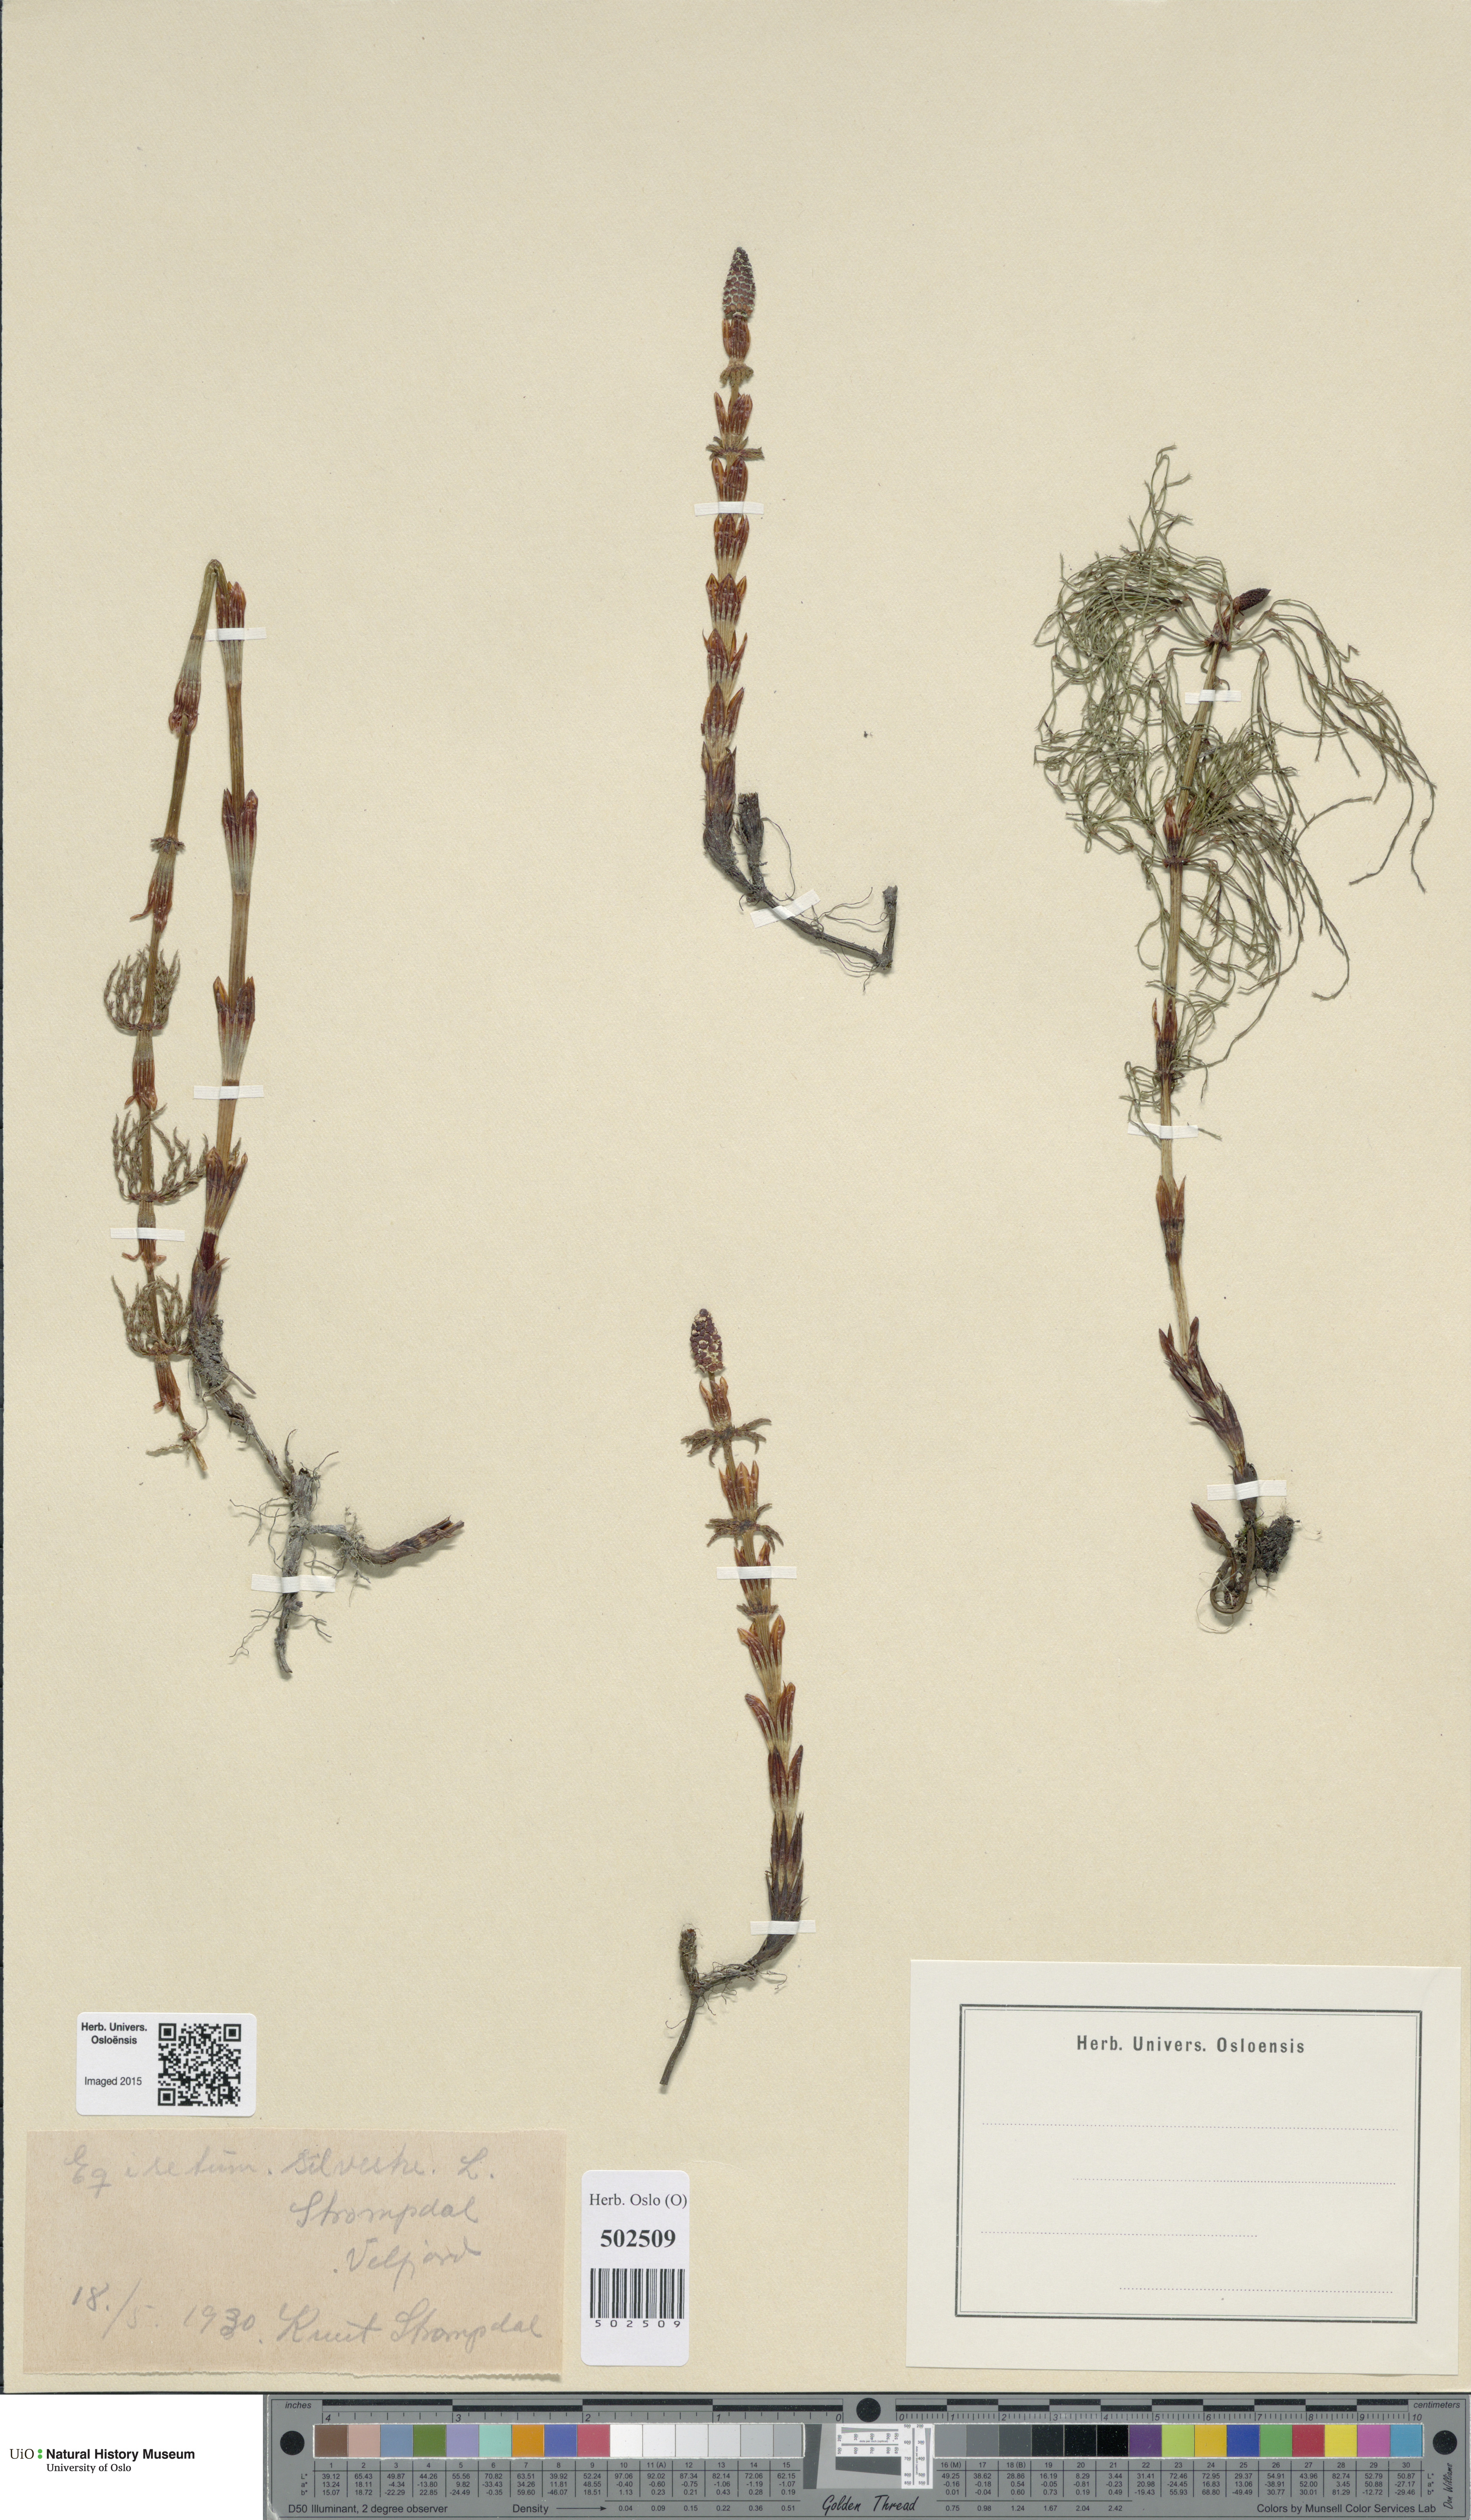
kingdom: Plantae
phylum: Tracheophyta
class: Polypodiopsida
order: Equisetales
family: Equisetaceae
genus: Equisetum
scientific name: Equisetum sylvaticum
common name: Wood horsetail
